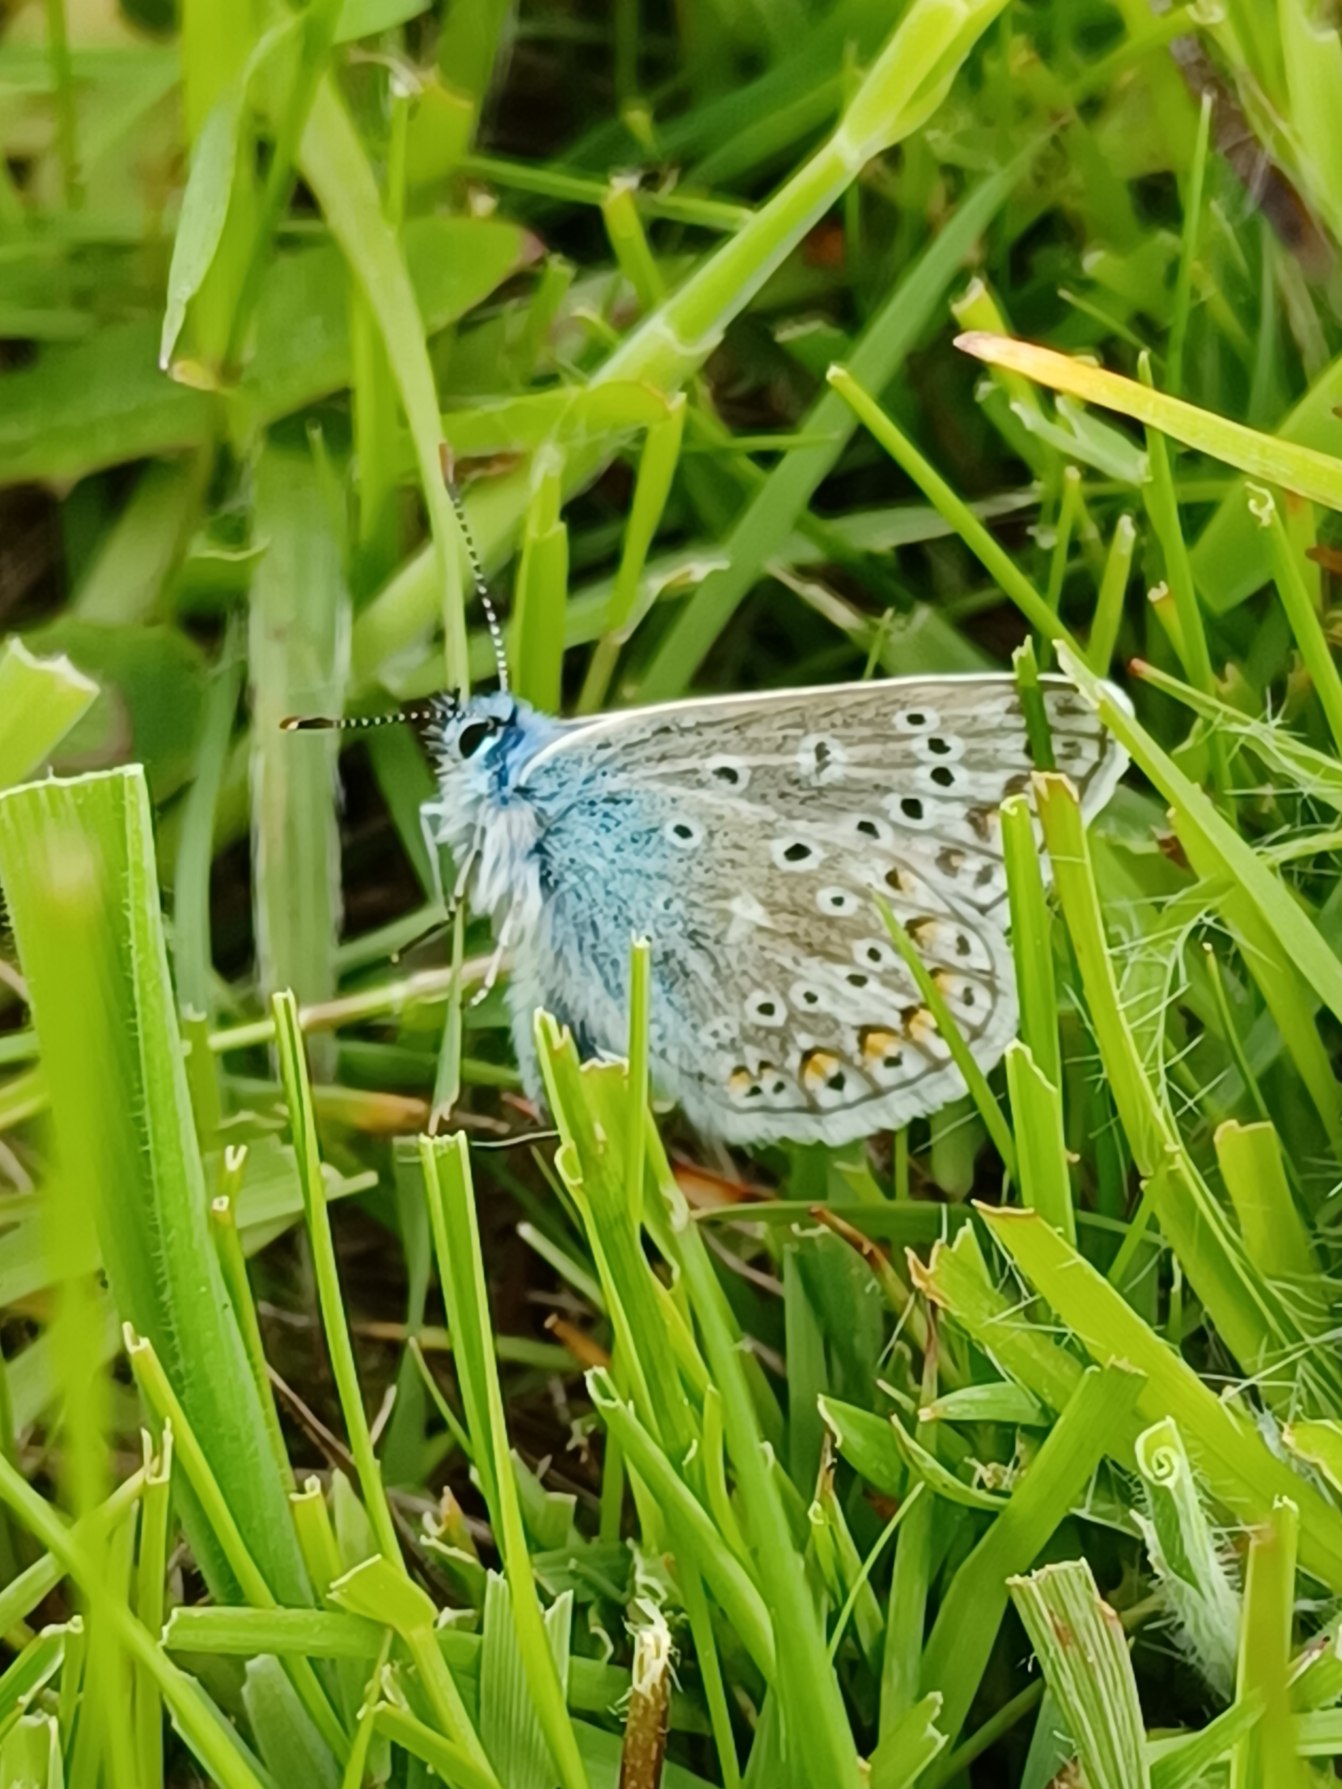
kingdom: Animalia
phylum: Arthropoda
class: Insecta
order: Lepidoptera
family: Lycaenidae
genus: Polyommatus
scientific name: Polyommatus icarus
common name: Almindelig blåfugl
